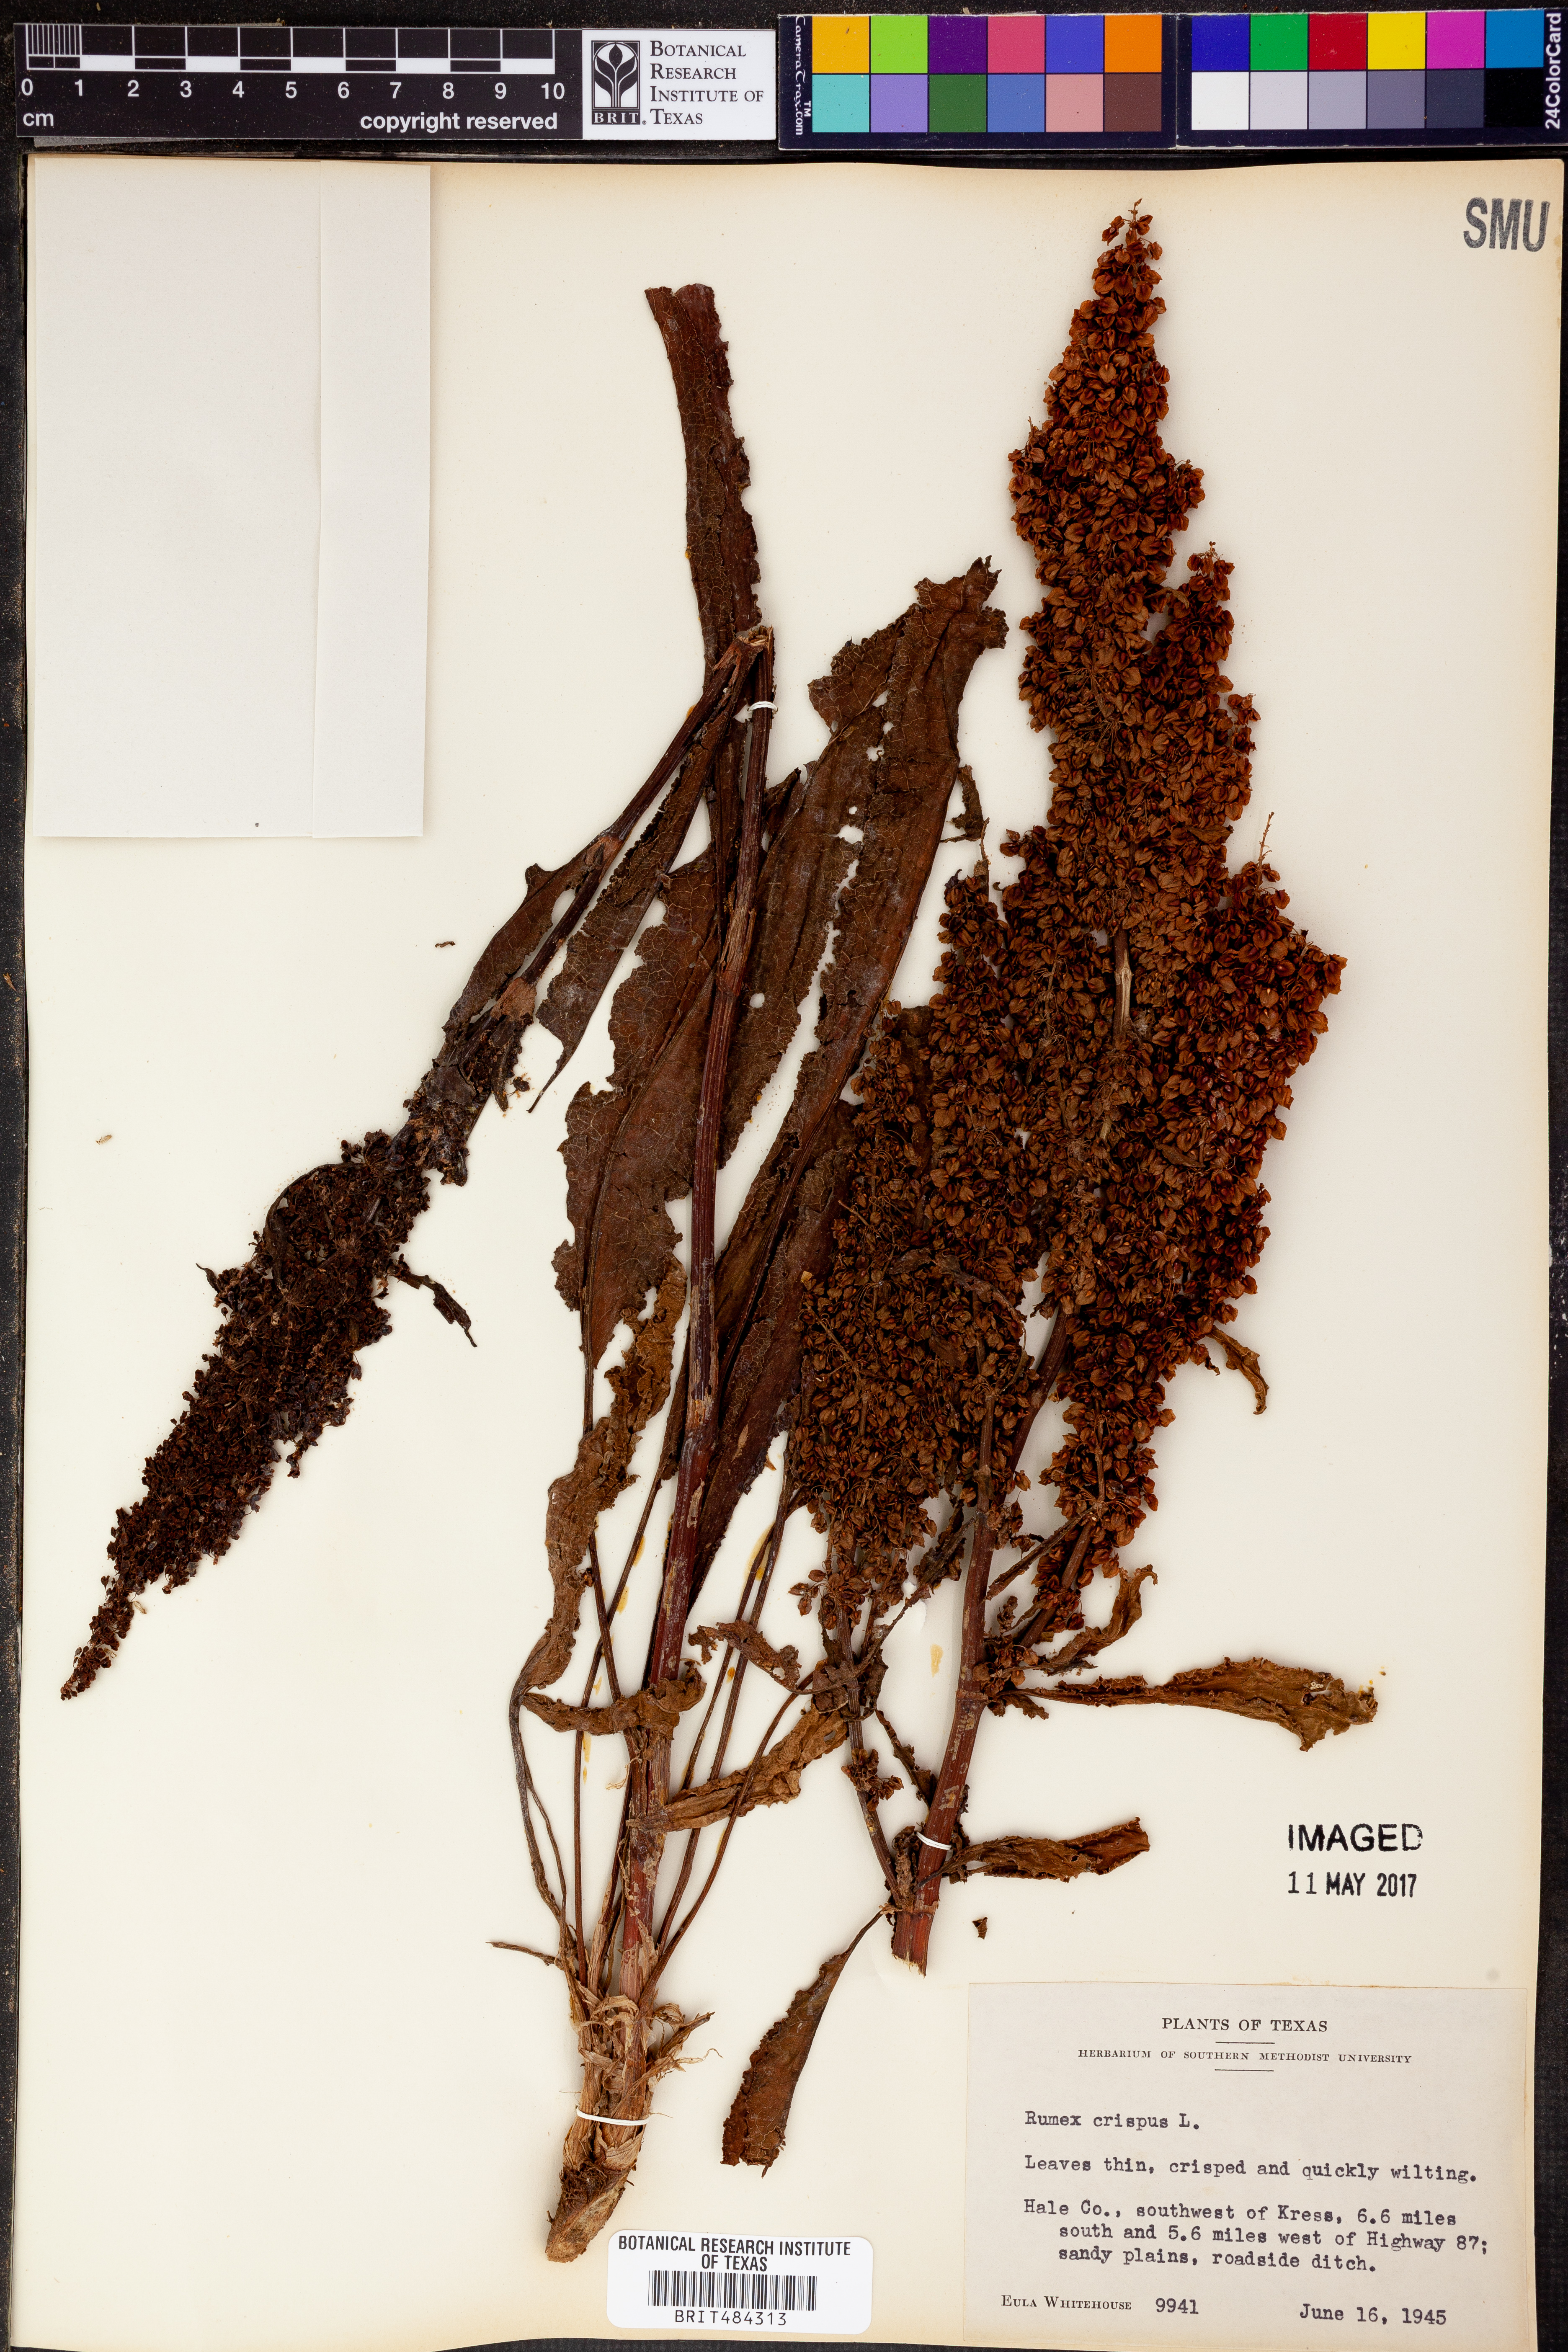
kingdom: Plantae
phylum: Tracheophyta
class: Magnoliopsida
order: Caryophyllales
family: Polygonaceae
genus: Rumex
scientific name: Rumex crispus
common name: Curled dock
